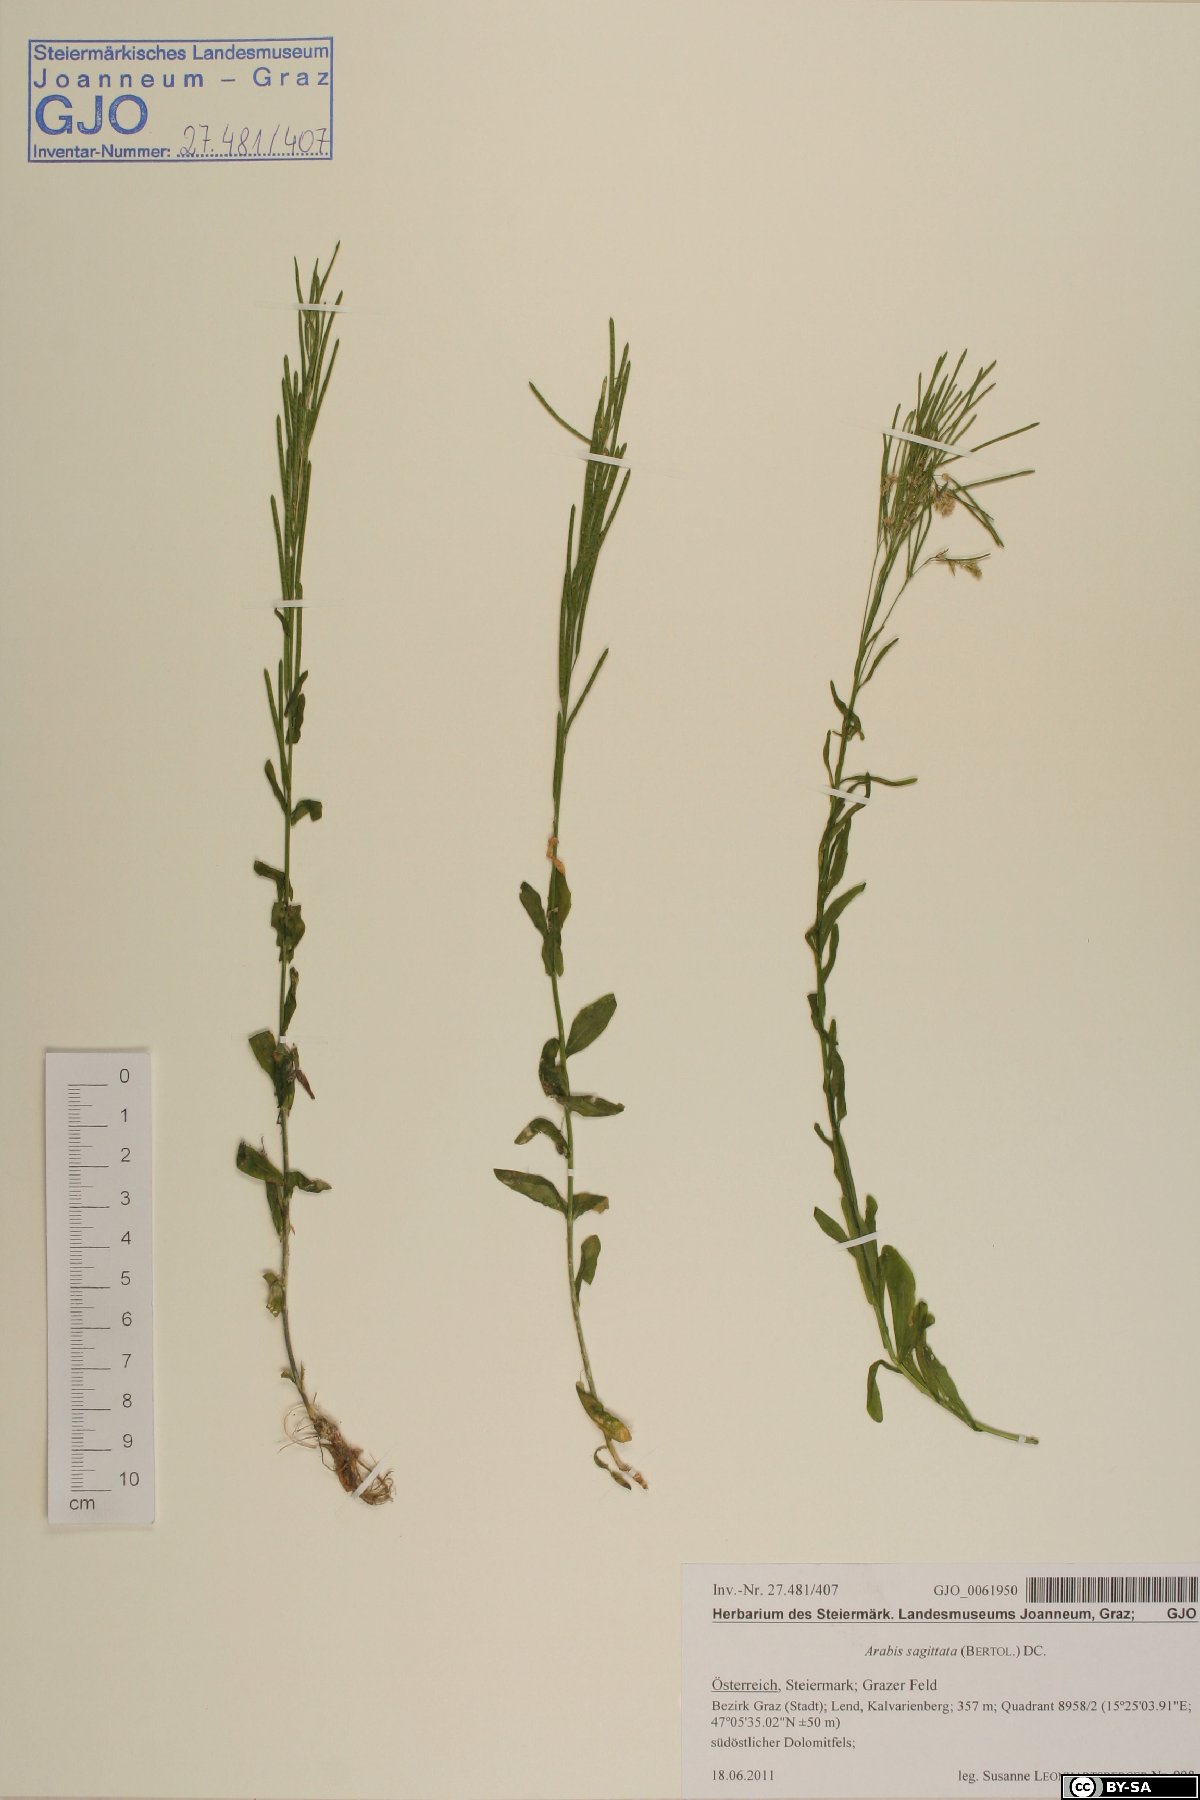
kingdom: Plantae
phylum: Tracheophyta
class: Magnoliopsida
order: Brassicales
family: Brassicaceae
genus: Arabis
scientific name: Arabis sagittata
